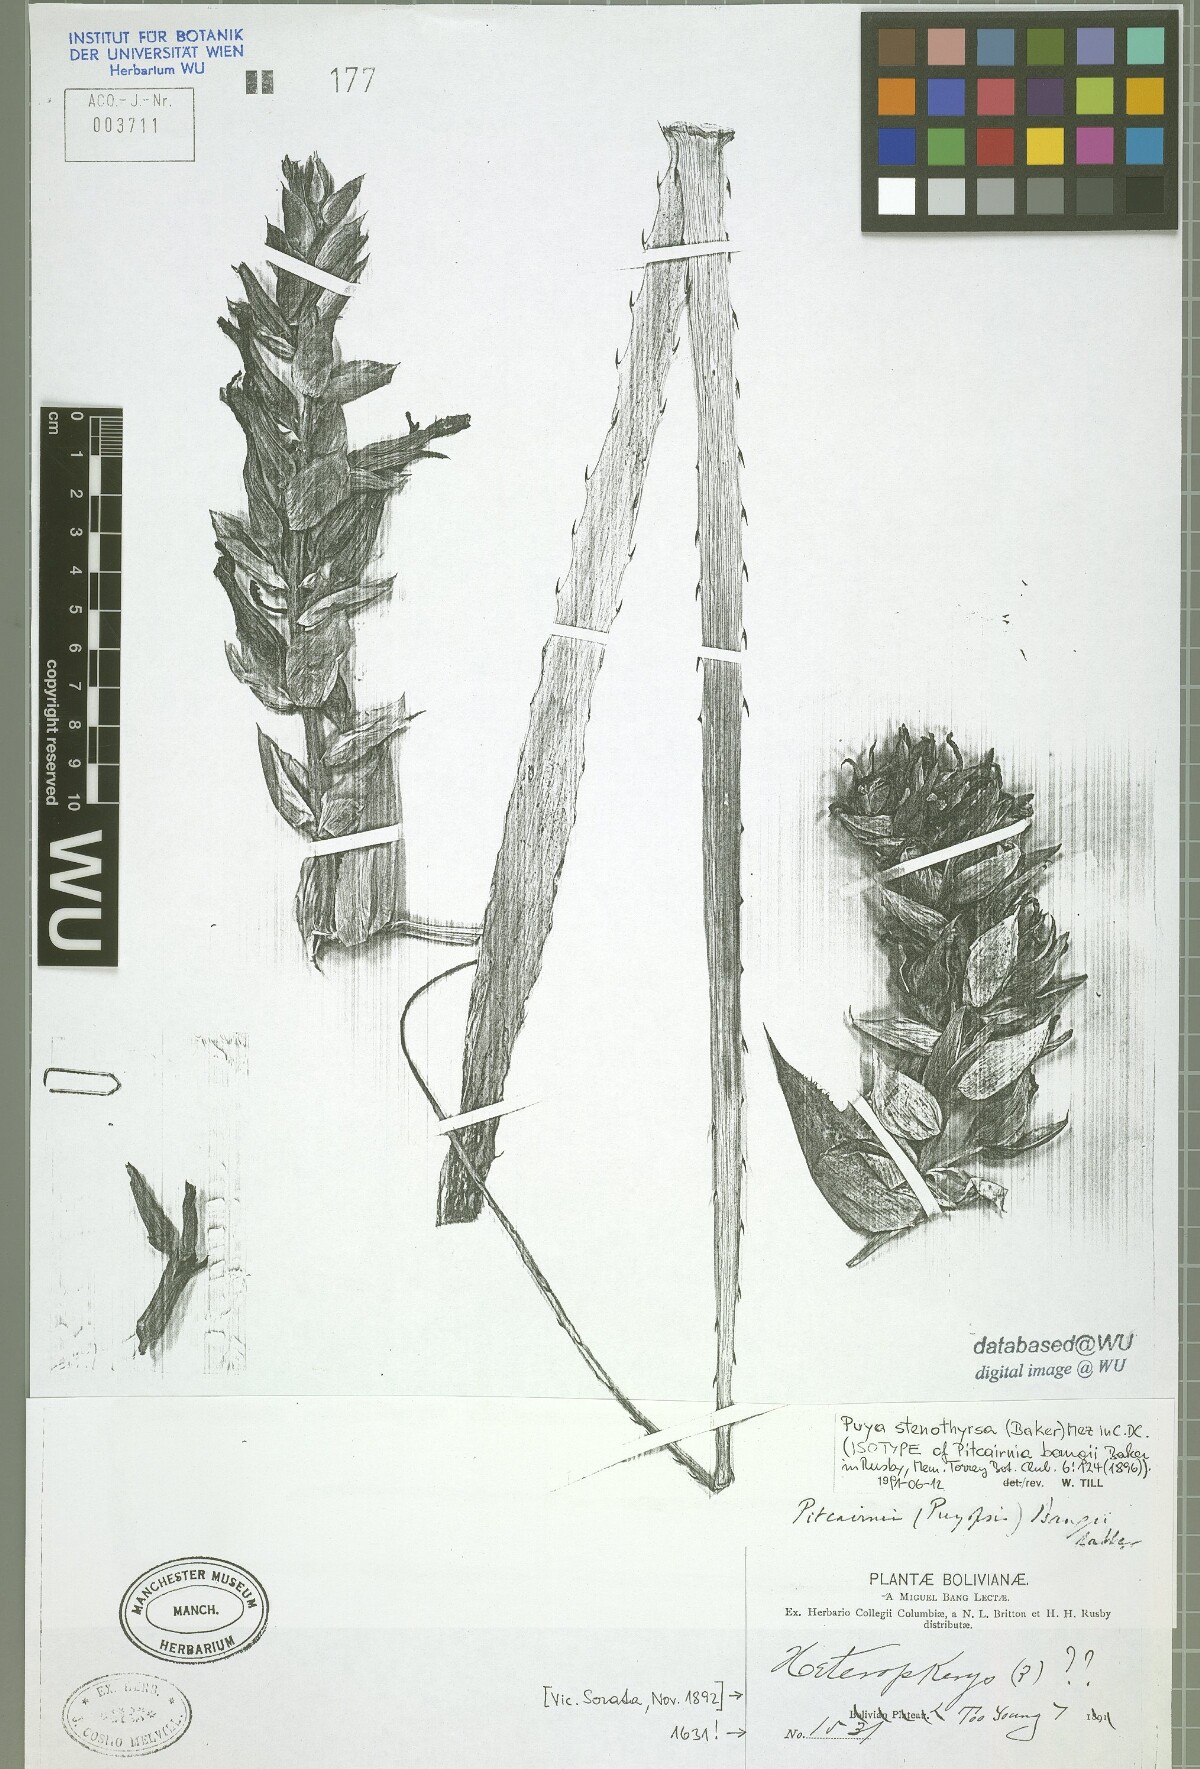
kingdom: Plantae
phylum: Tracheophyta
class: Liliopsida
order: Poales
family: Bromeliaceae
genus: Pitcairnia
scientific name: Pitcairnia bangii
